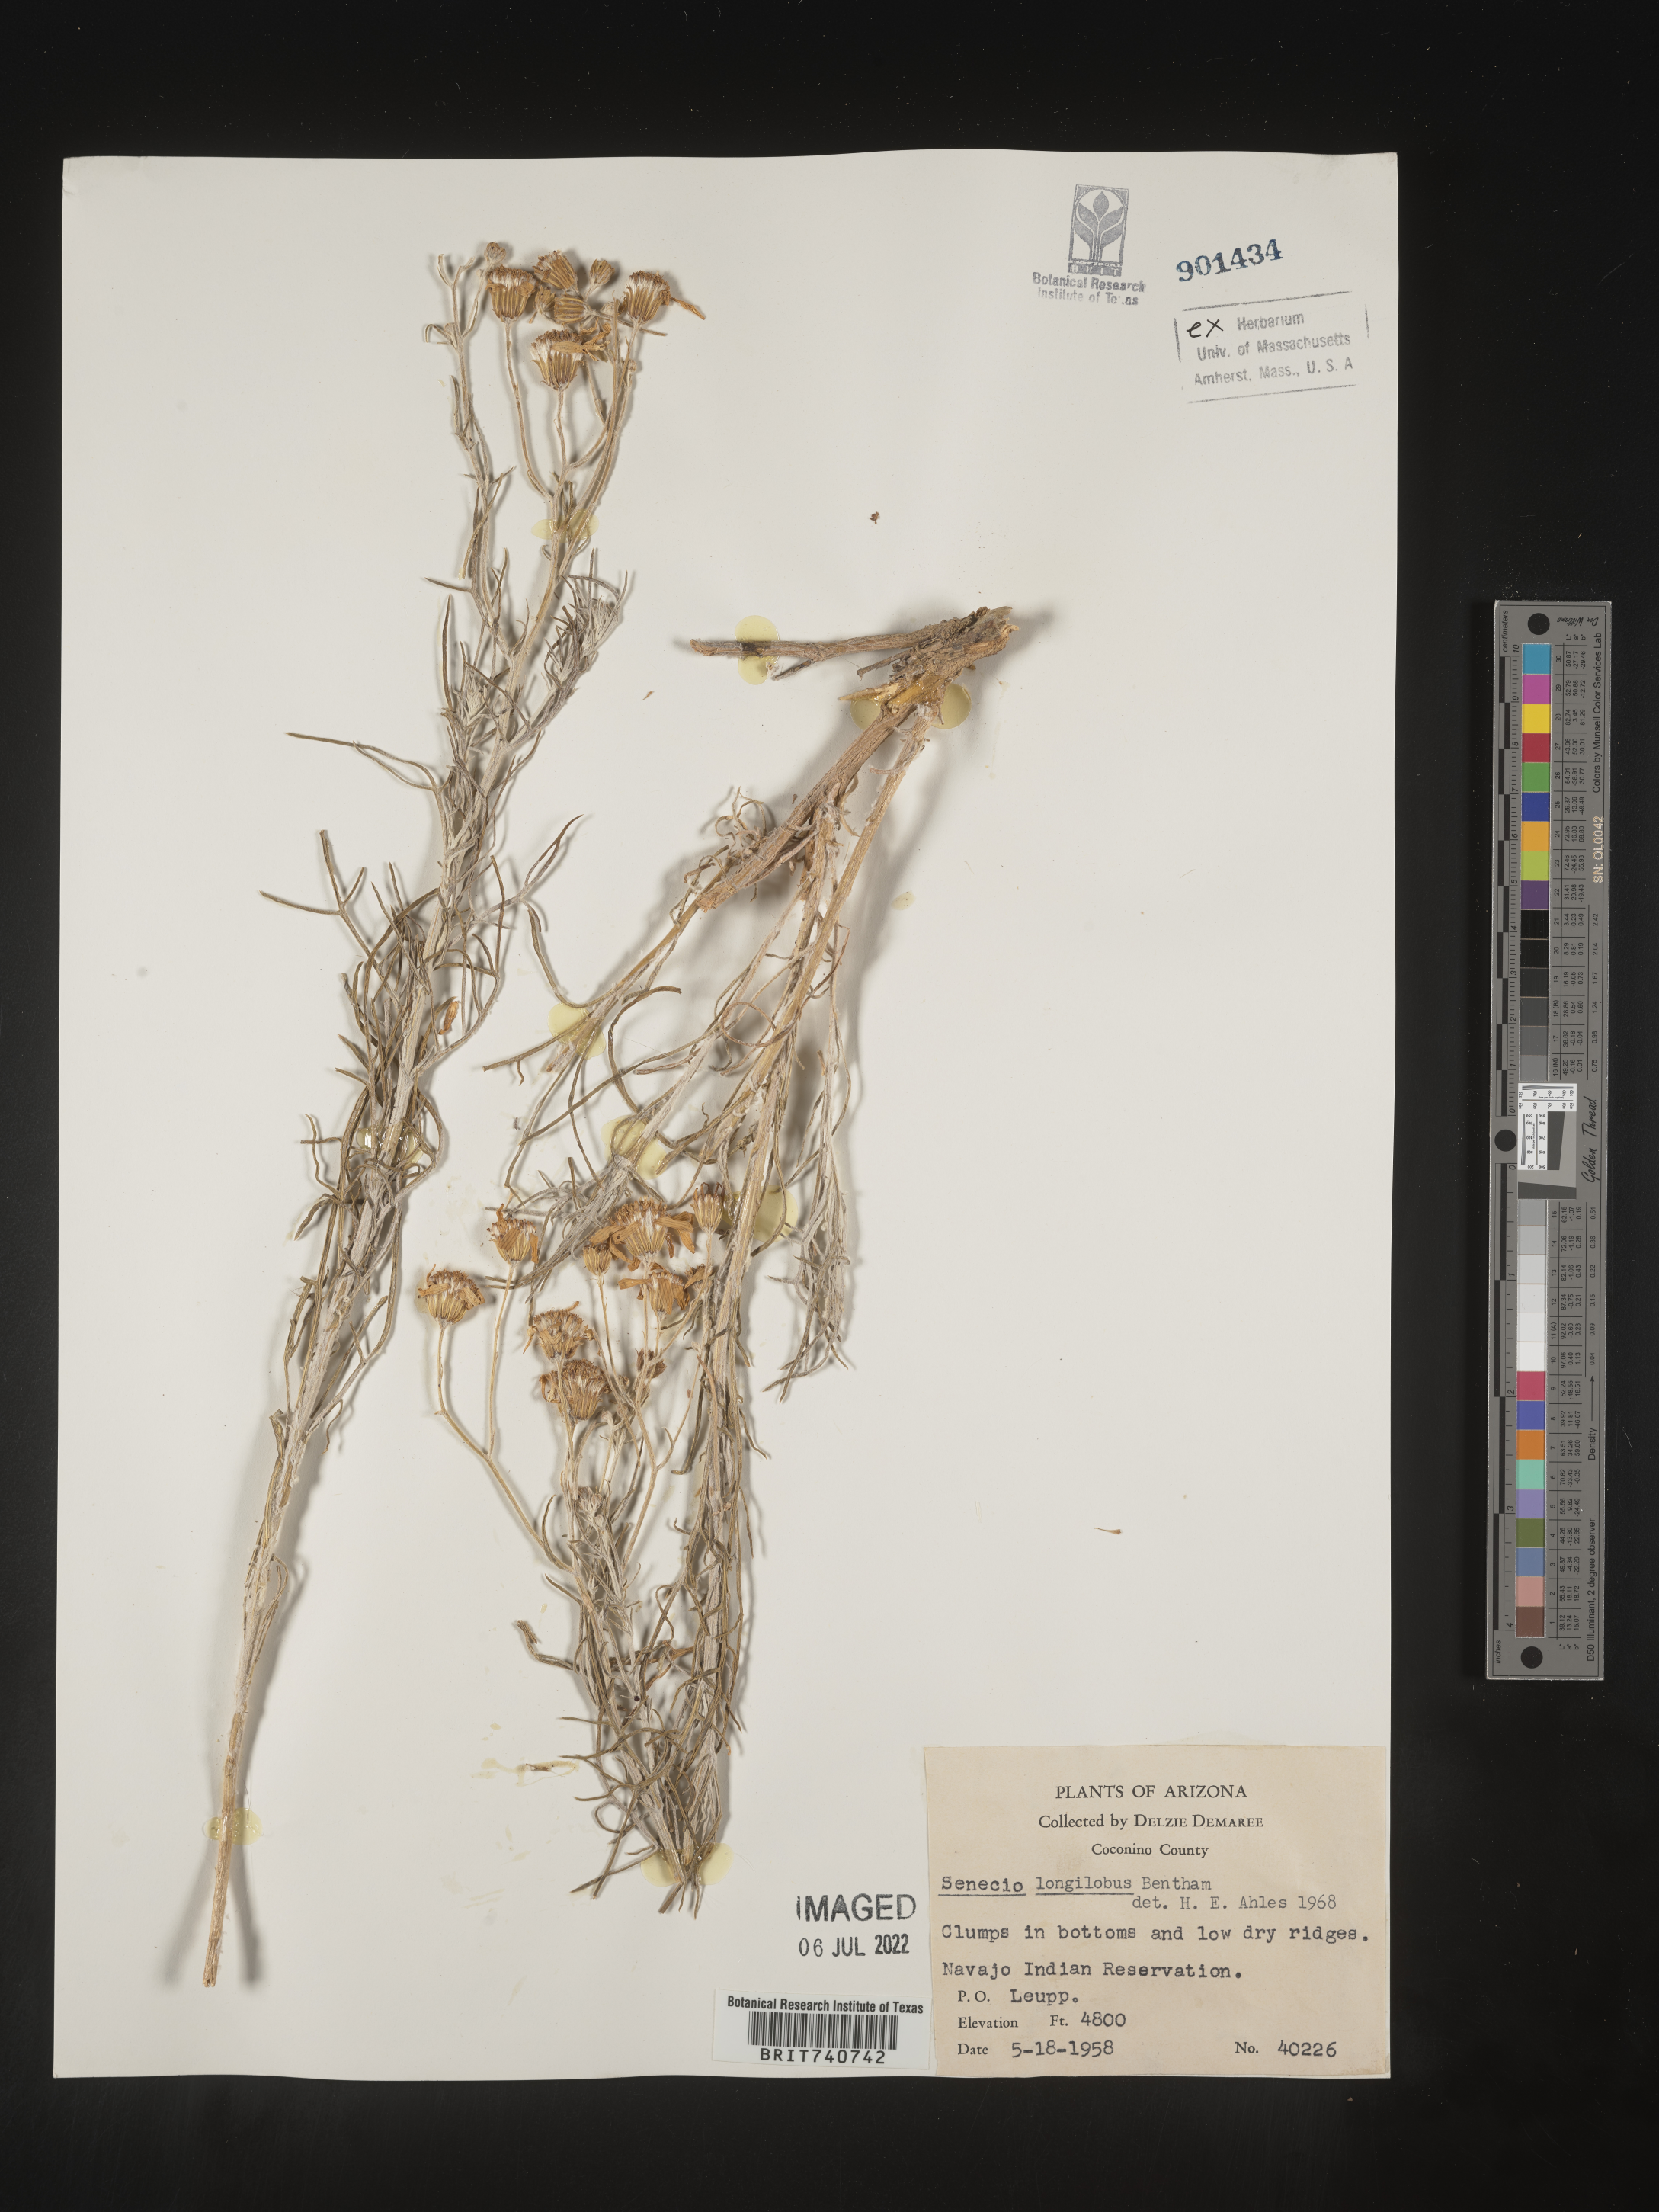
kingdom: Plantae
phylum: Tracheophyta
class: Magnoliopsida
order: Asterales
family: Asteraceae
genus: Senecio
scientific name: Senecio flaccidus
